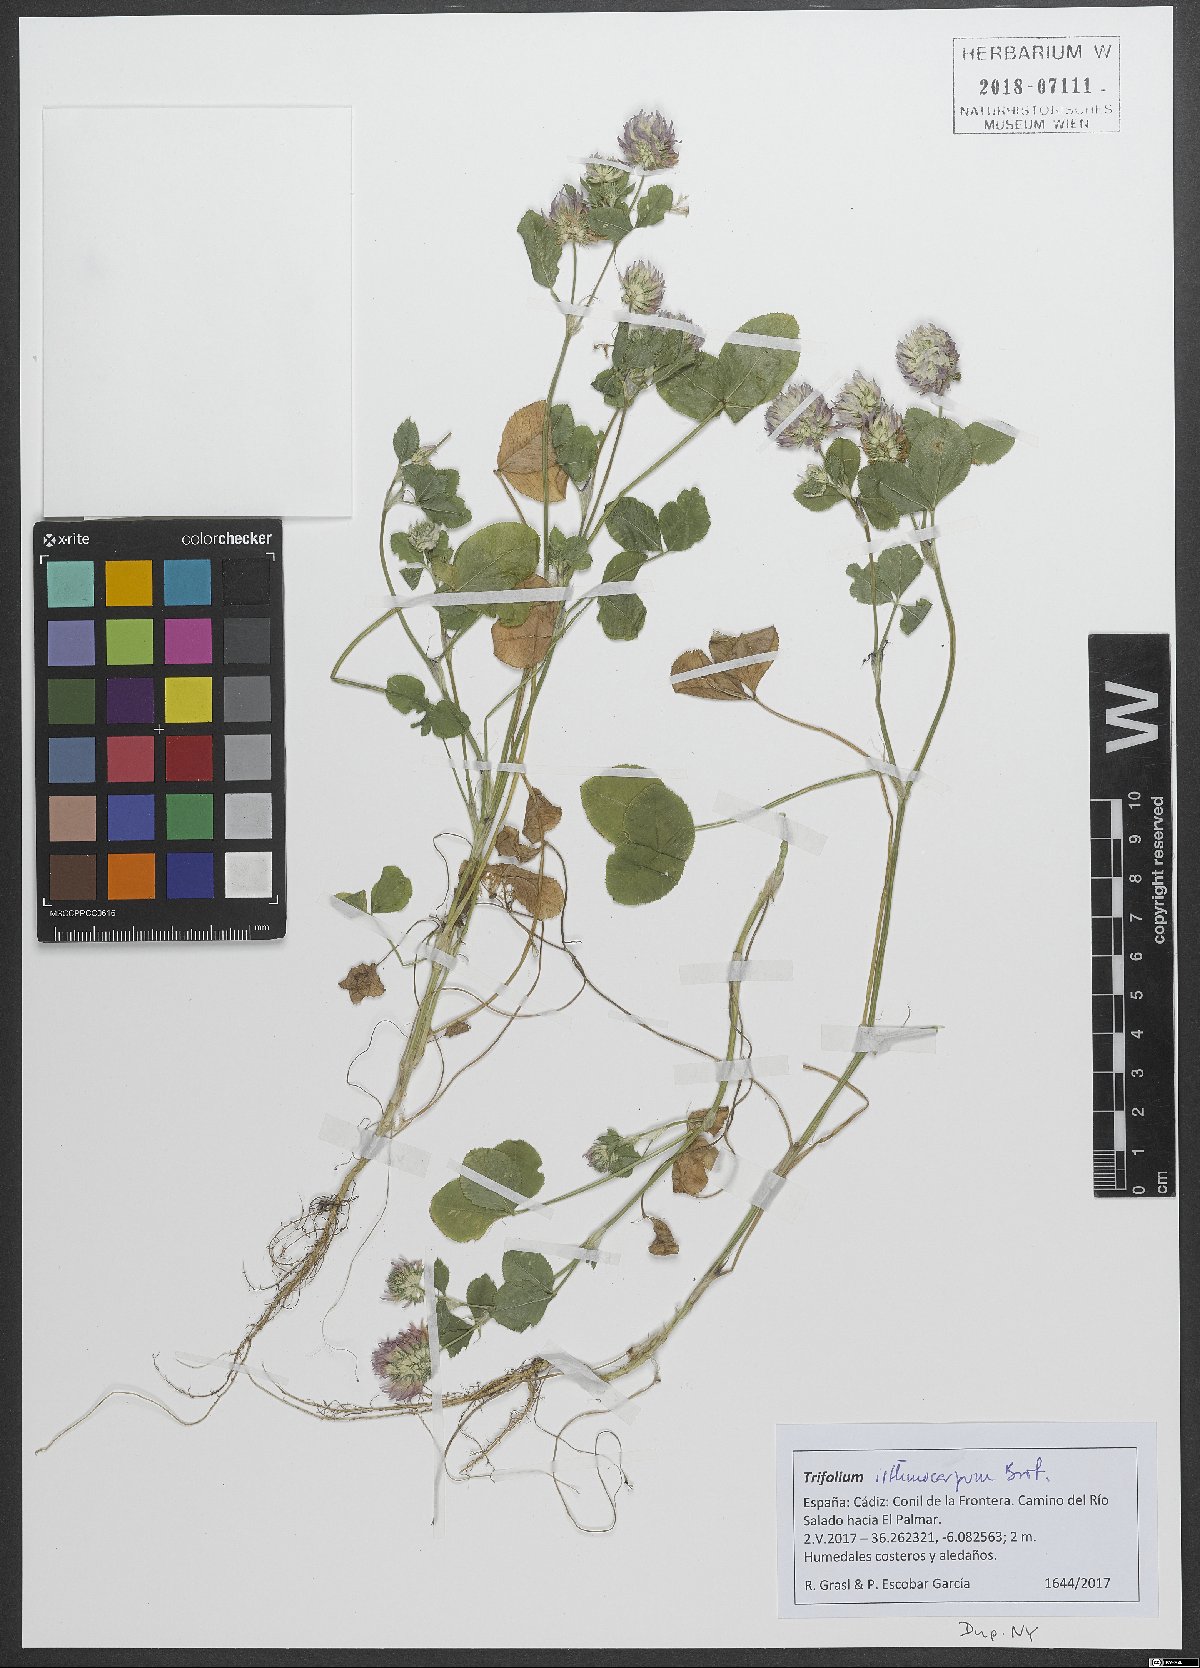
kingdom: Plantae
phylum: Tracheophyta
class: Magnoliopsida
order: Fabales
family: Fabaceae
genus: Trifolium
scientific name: Trifolium isthmocarpum
